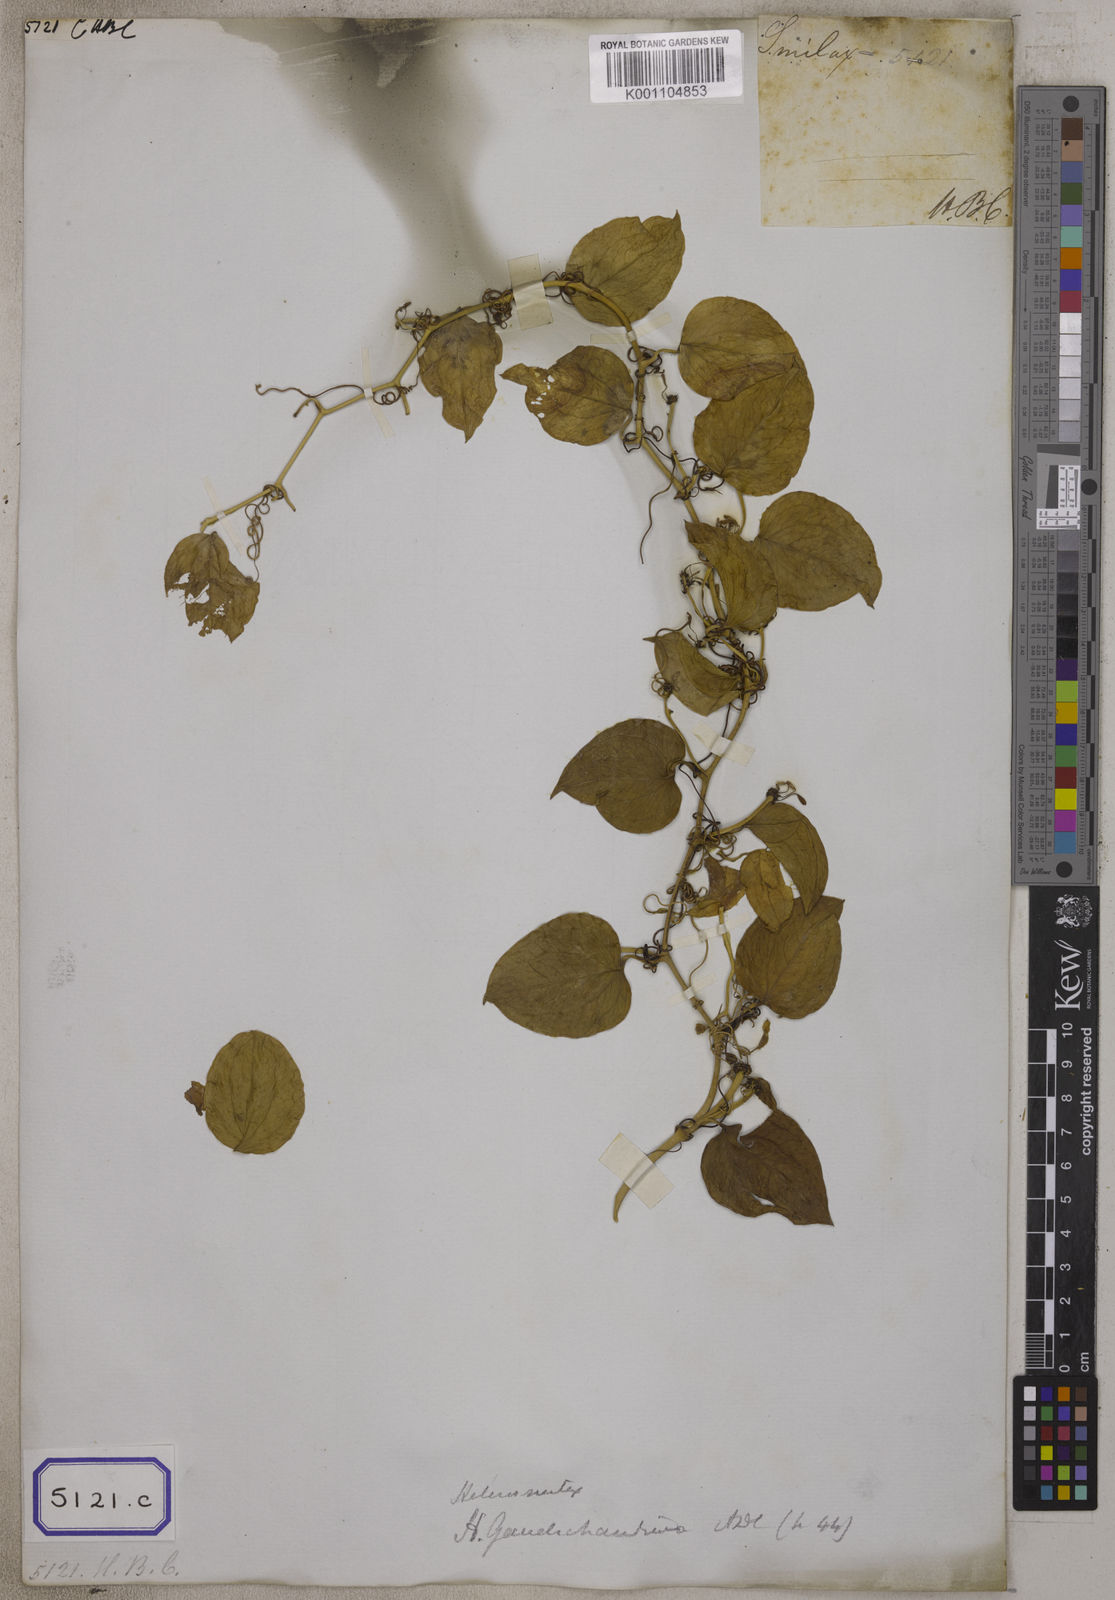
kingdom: Plantae
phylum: Tracheophyta
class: Liliopsida
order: Liliales
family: Smilacaceae
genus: Smilax
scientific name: Smilax
